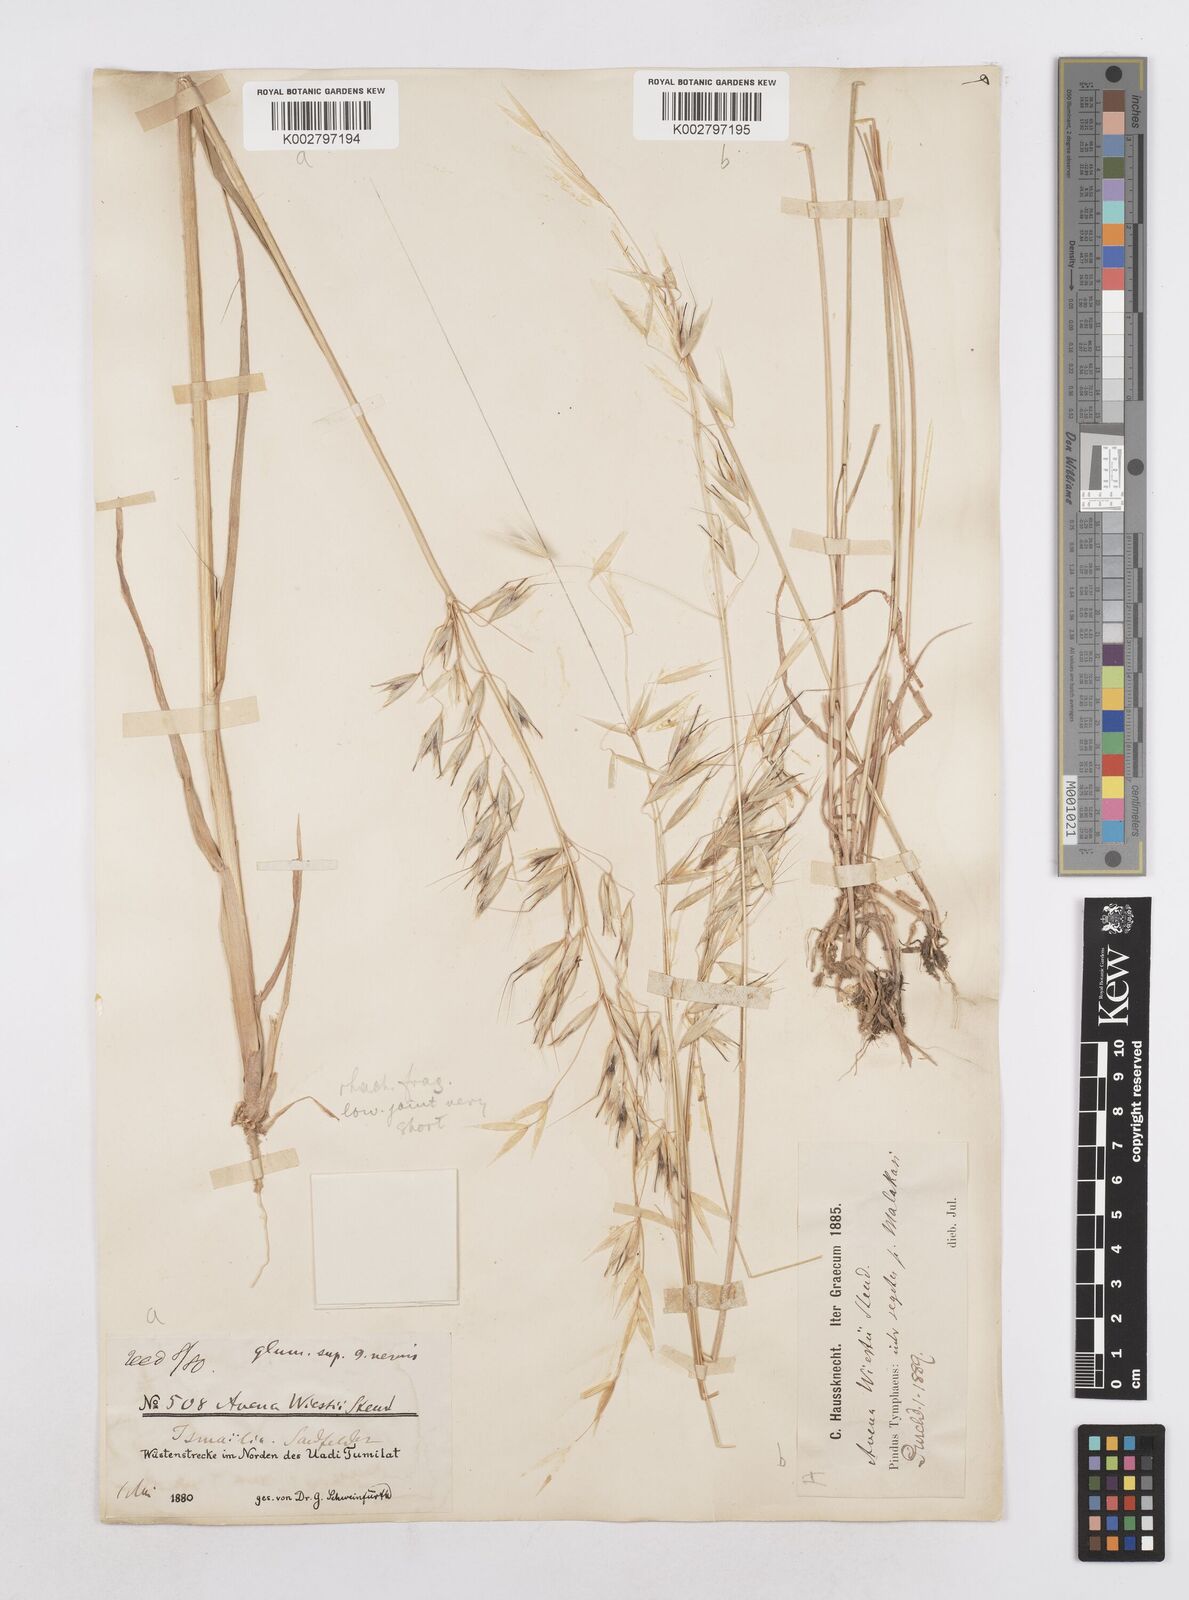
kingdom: Plantae
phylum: Tracheophyta
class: Liliopsida
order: Poales
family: Poaceae
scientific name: Poaceae
